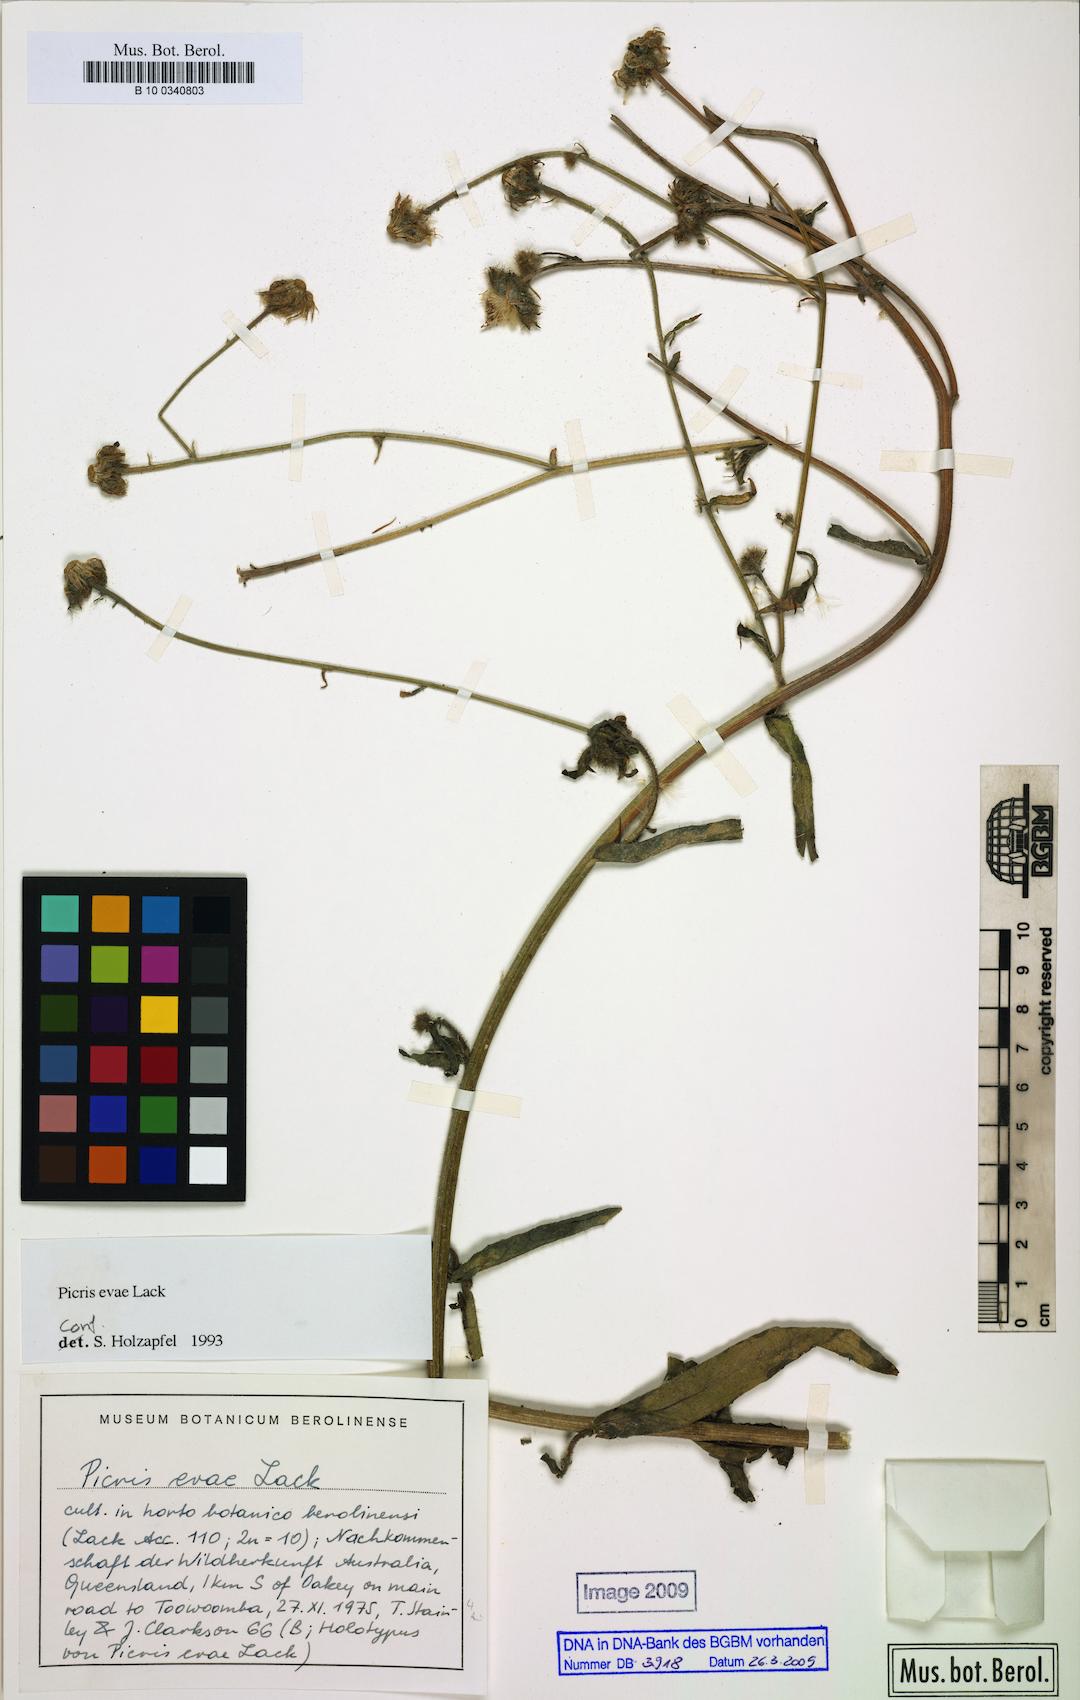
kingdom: Plantae
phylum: Tracheophyta
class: Magnoliopsida
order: Asterales
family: Asteraceae
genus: Picris
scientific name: Picris evae
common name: Hawkweed
